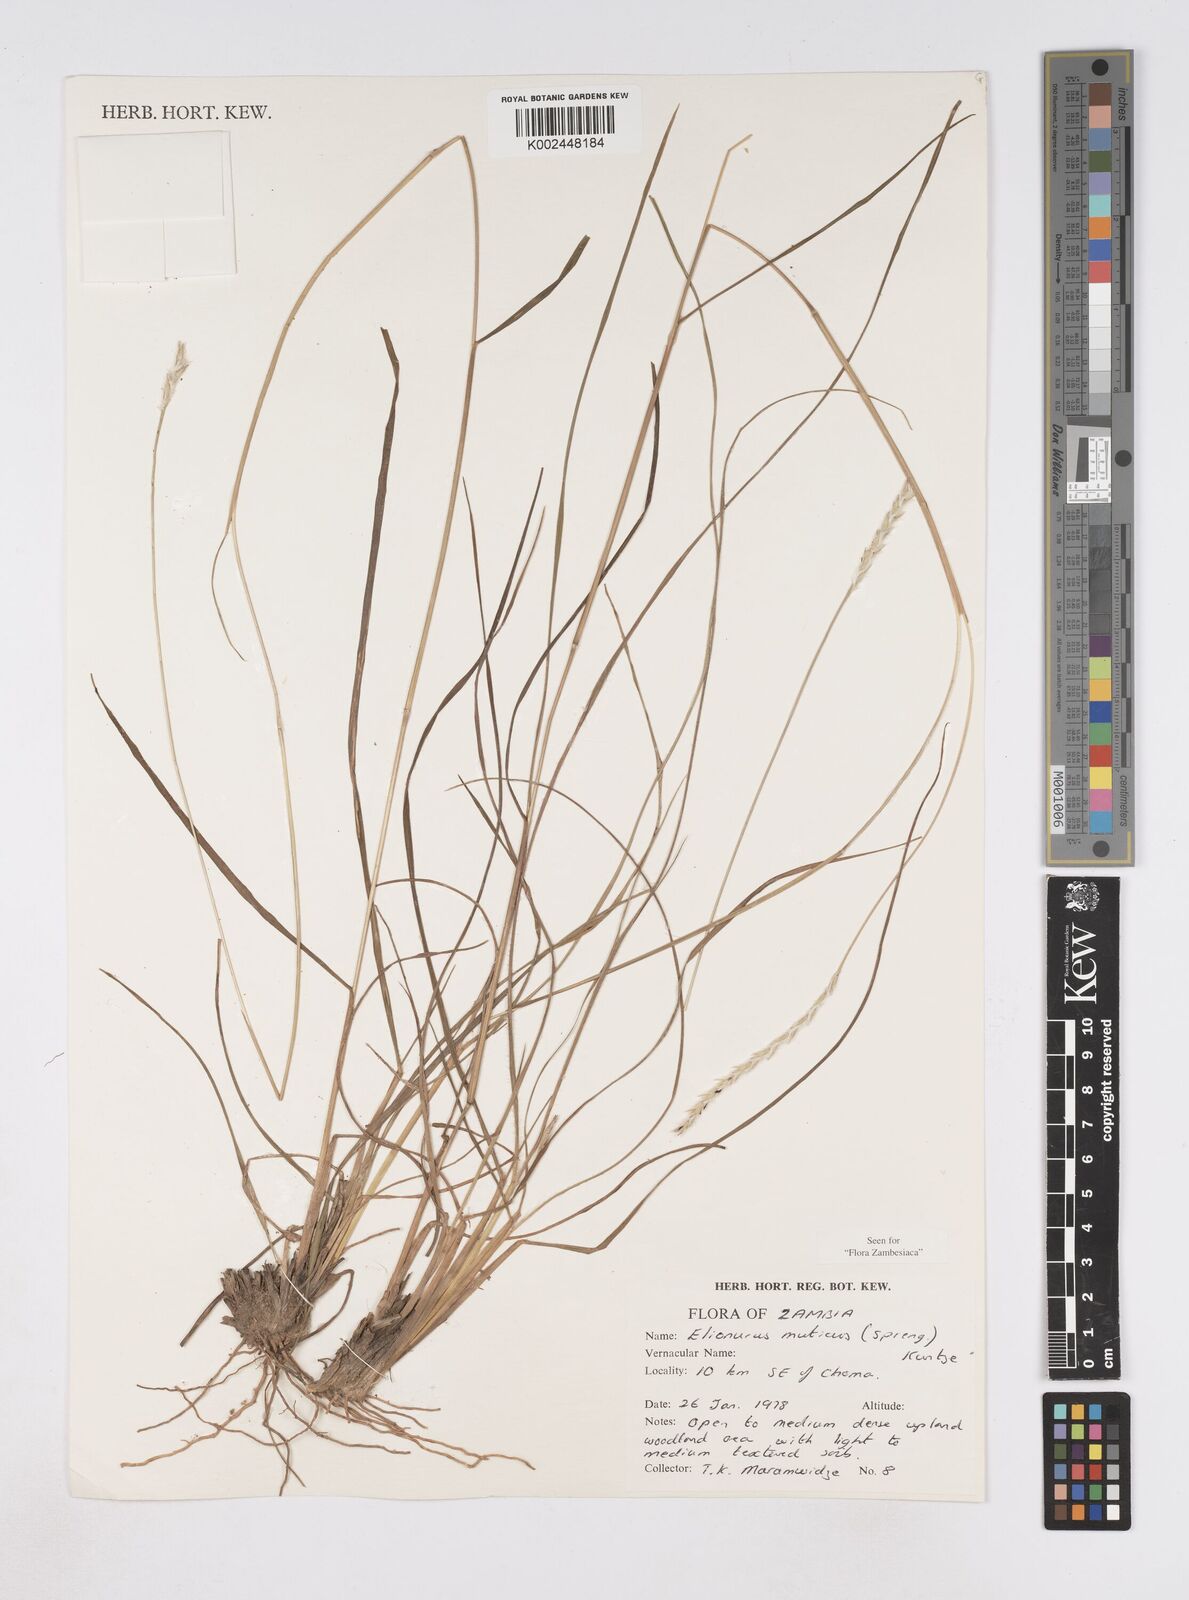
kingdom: Plantae
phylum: Tracheophyta
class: Liliopsida
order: Poales
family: Poaceae
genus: Elionurus
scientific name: Elionurus muticus
